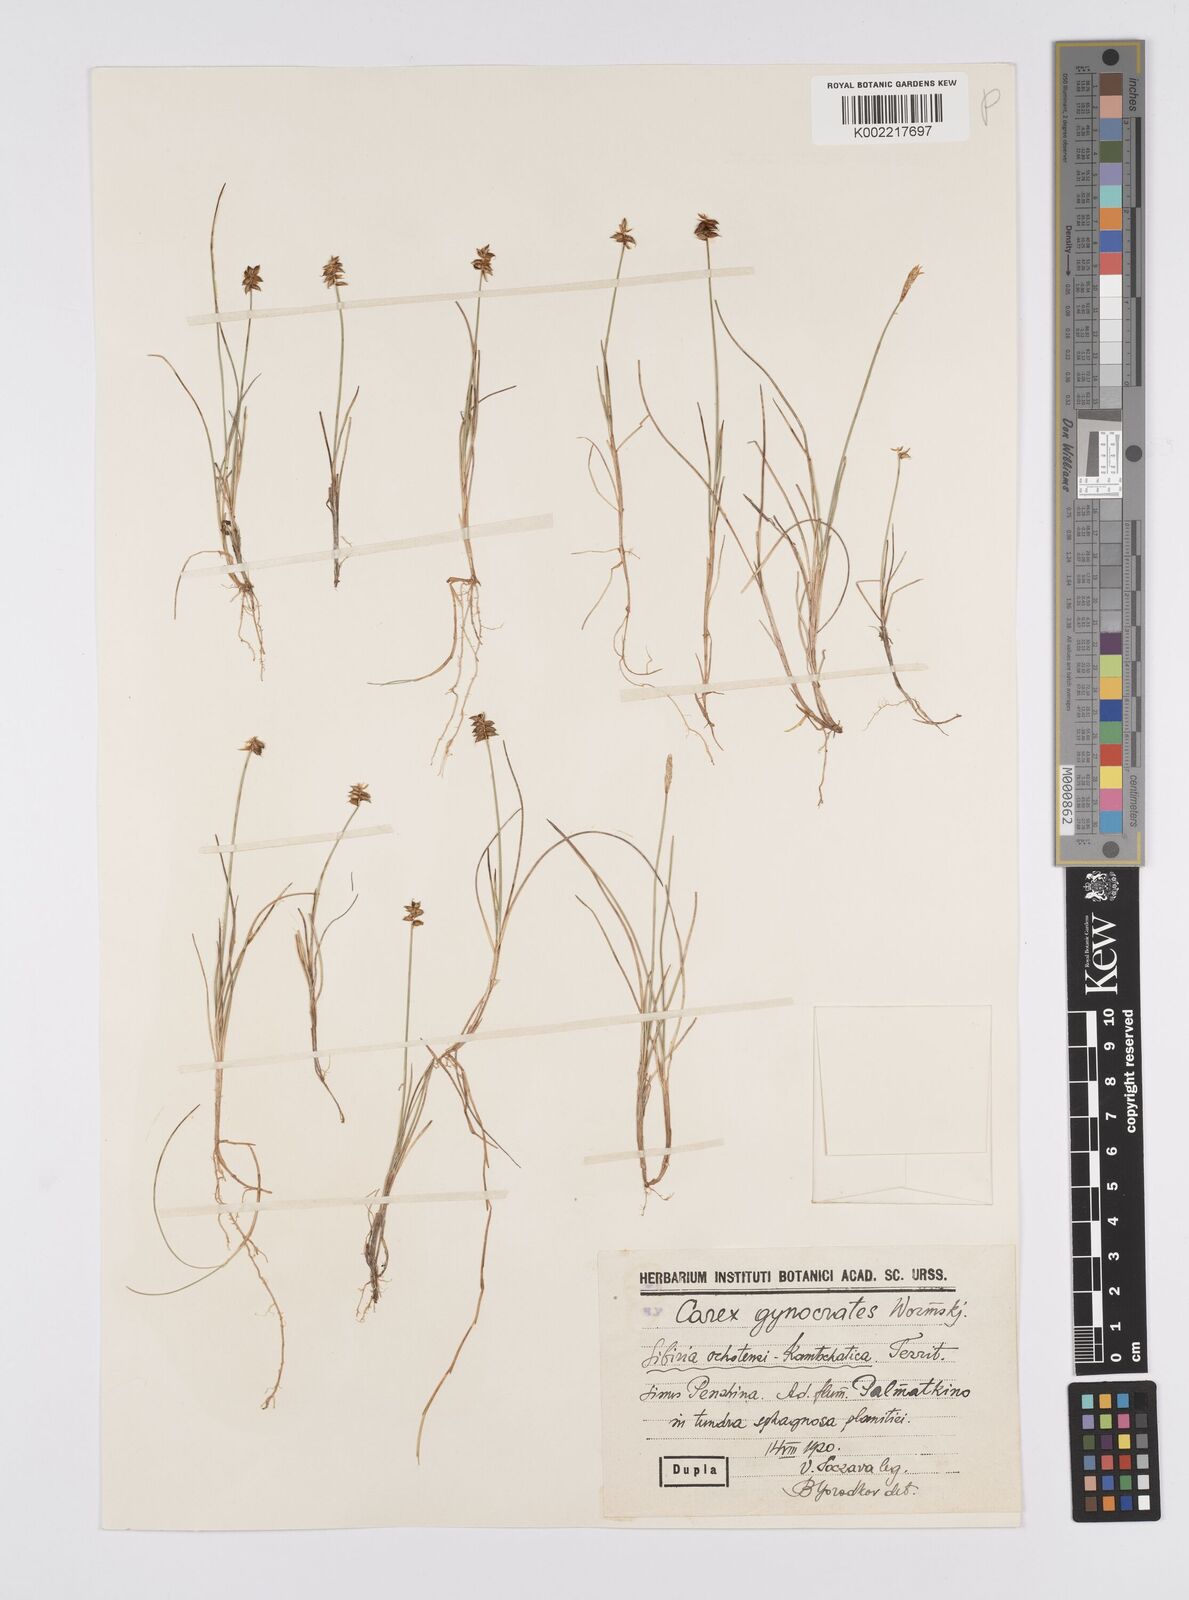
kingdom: Plantae
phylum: Tracheophyta
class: Liliopsida
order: Poales
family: Cyperaceae
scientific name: Cyperaceae
